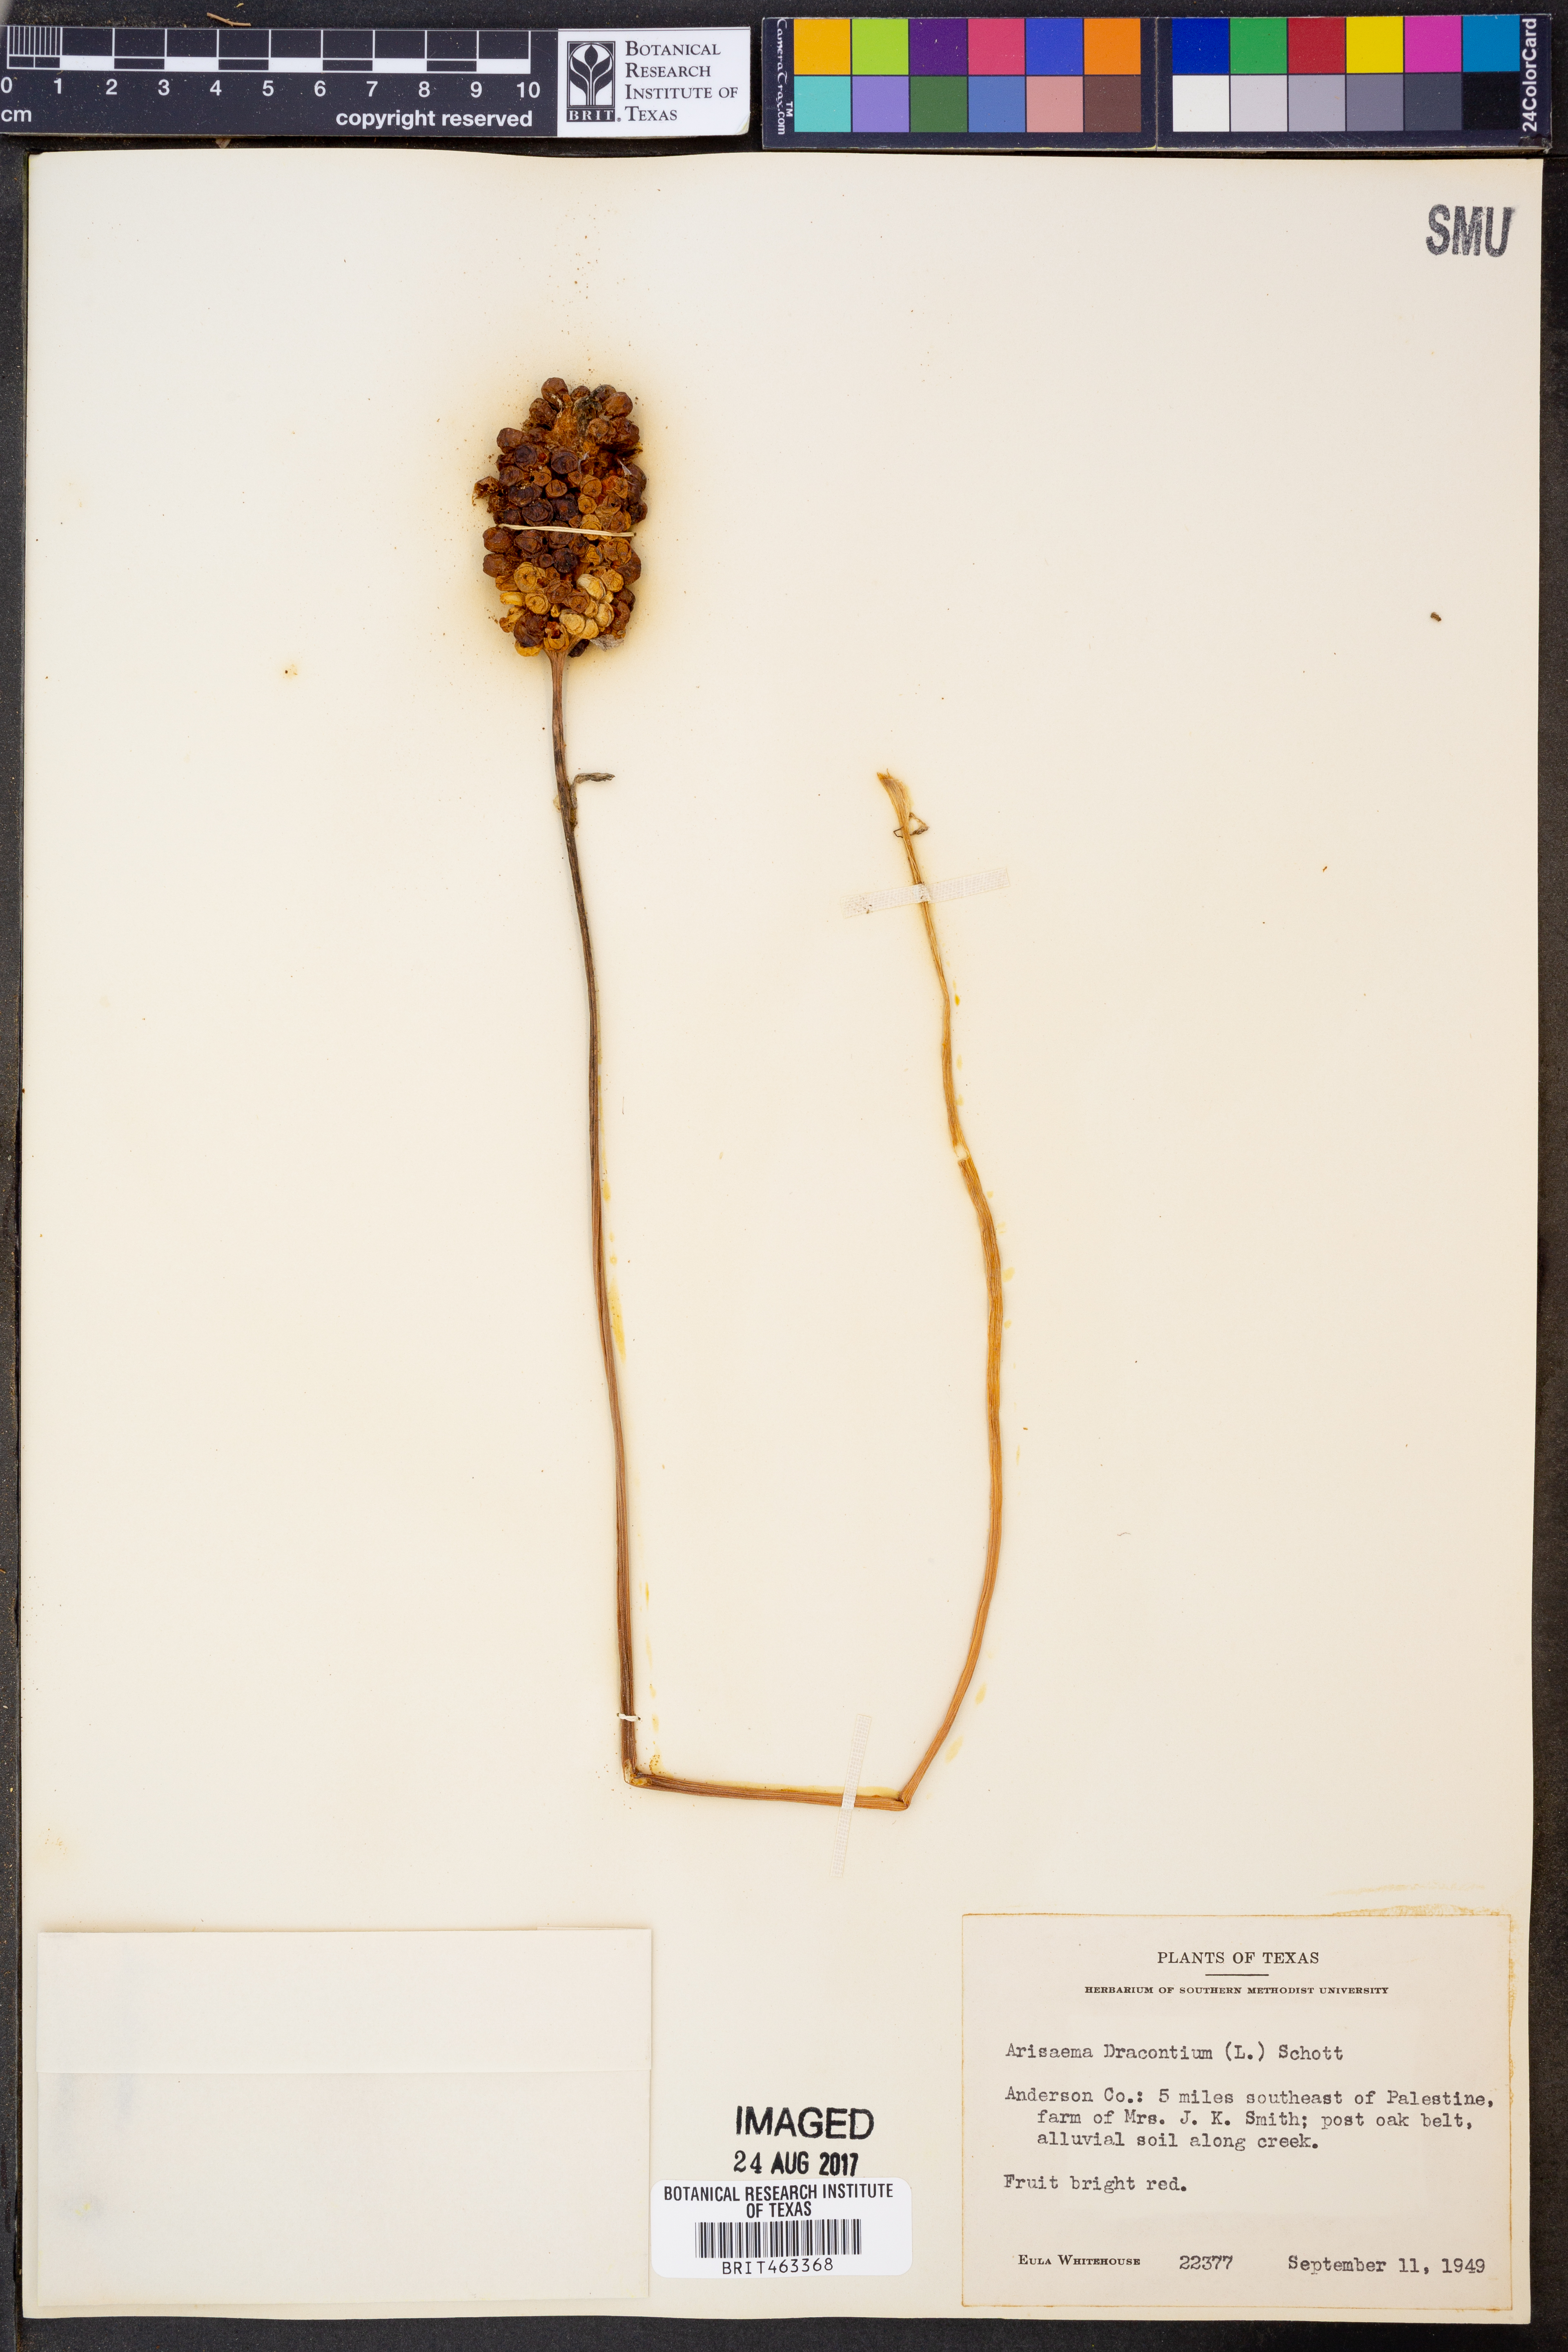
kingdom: Plantae
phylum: Tracheophyta
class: Liliopsida
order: Alismatales
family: Araceae
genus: Arisaema
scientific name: Arisaema dracontium
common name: Dragon-arum
